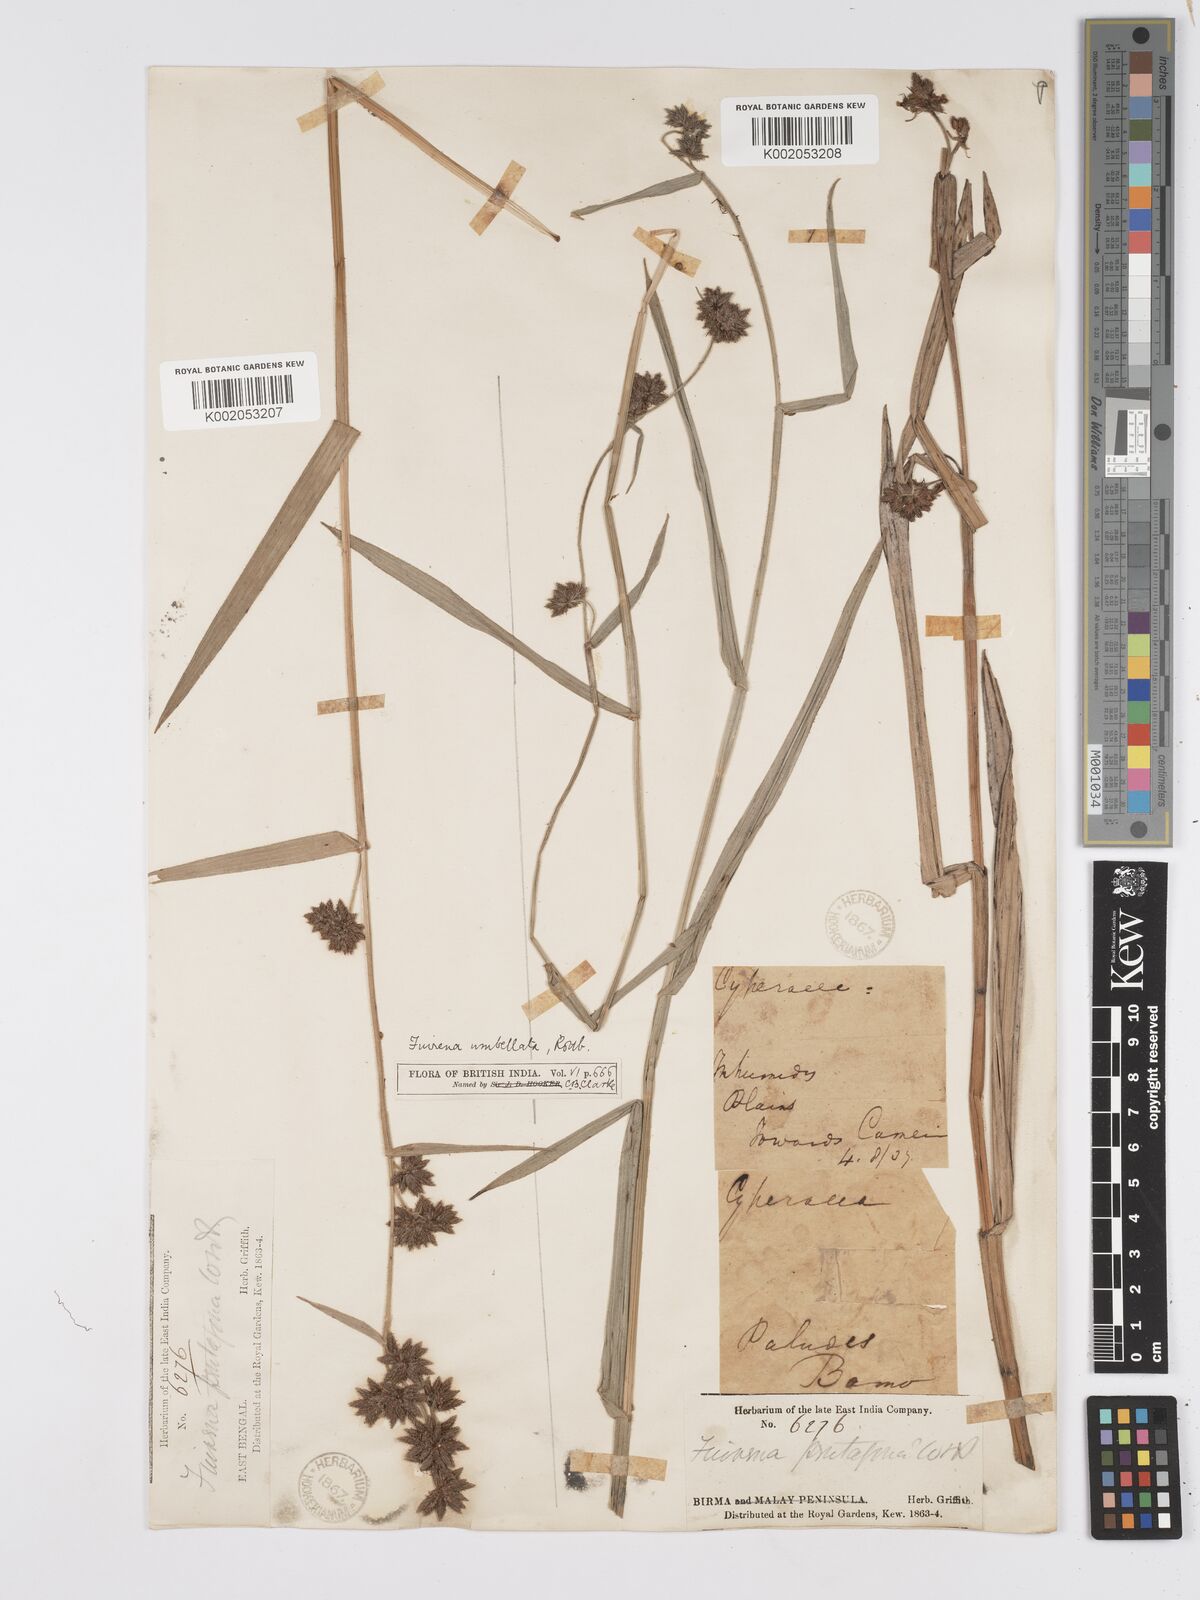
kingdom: Plantae
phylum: Tracheophyta
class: Liliopsida
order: Poales
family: Cyperaceae
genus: Fuirena
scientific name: Fuirena umbellata
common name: Yefen
